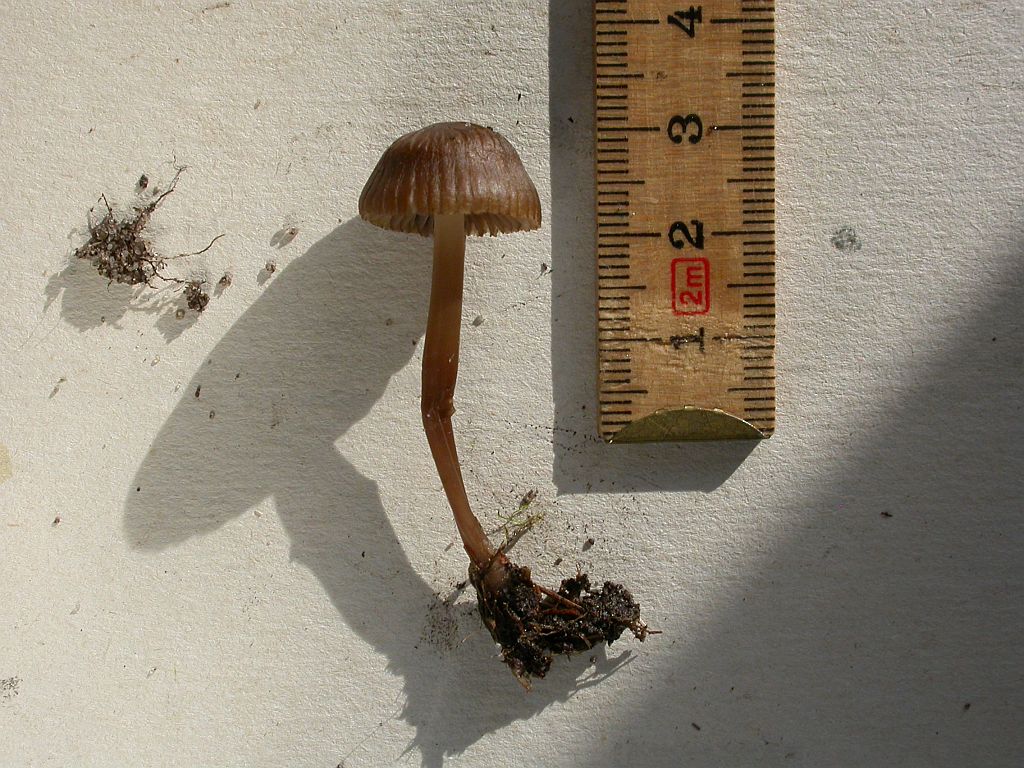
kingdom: Fungi
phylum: Basidiomycota
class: Agaricomycetes
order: Agaricales
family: Mycenaceae
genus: Mycena
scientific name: Mycena epipterygia
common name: Yellowleg bonnet
